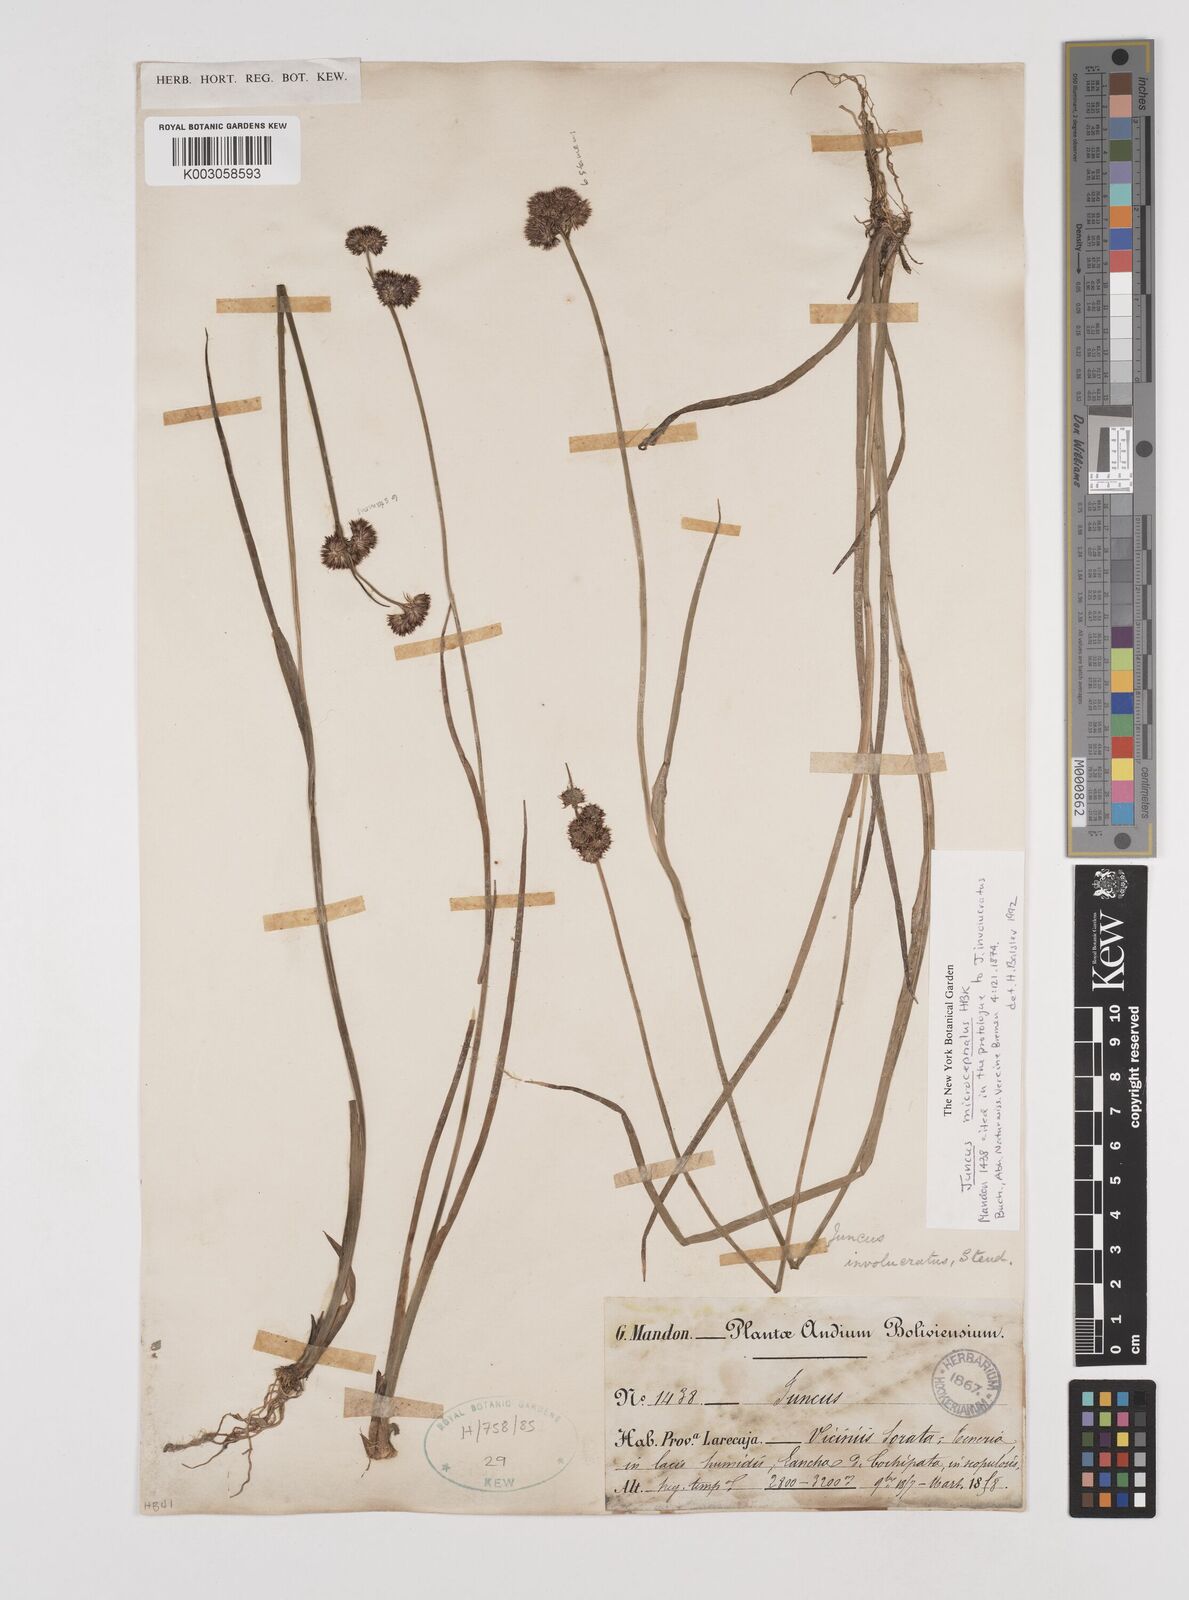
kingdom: Plantae
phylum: Tracheophyta
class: Liliopsida
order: Poales
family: Juncaceae
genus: Juncus
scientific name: Juncus
